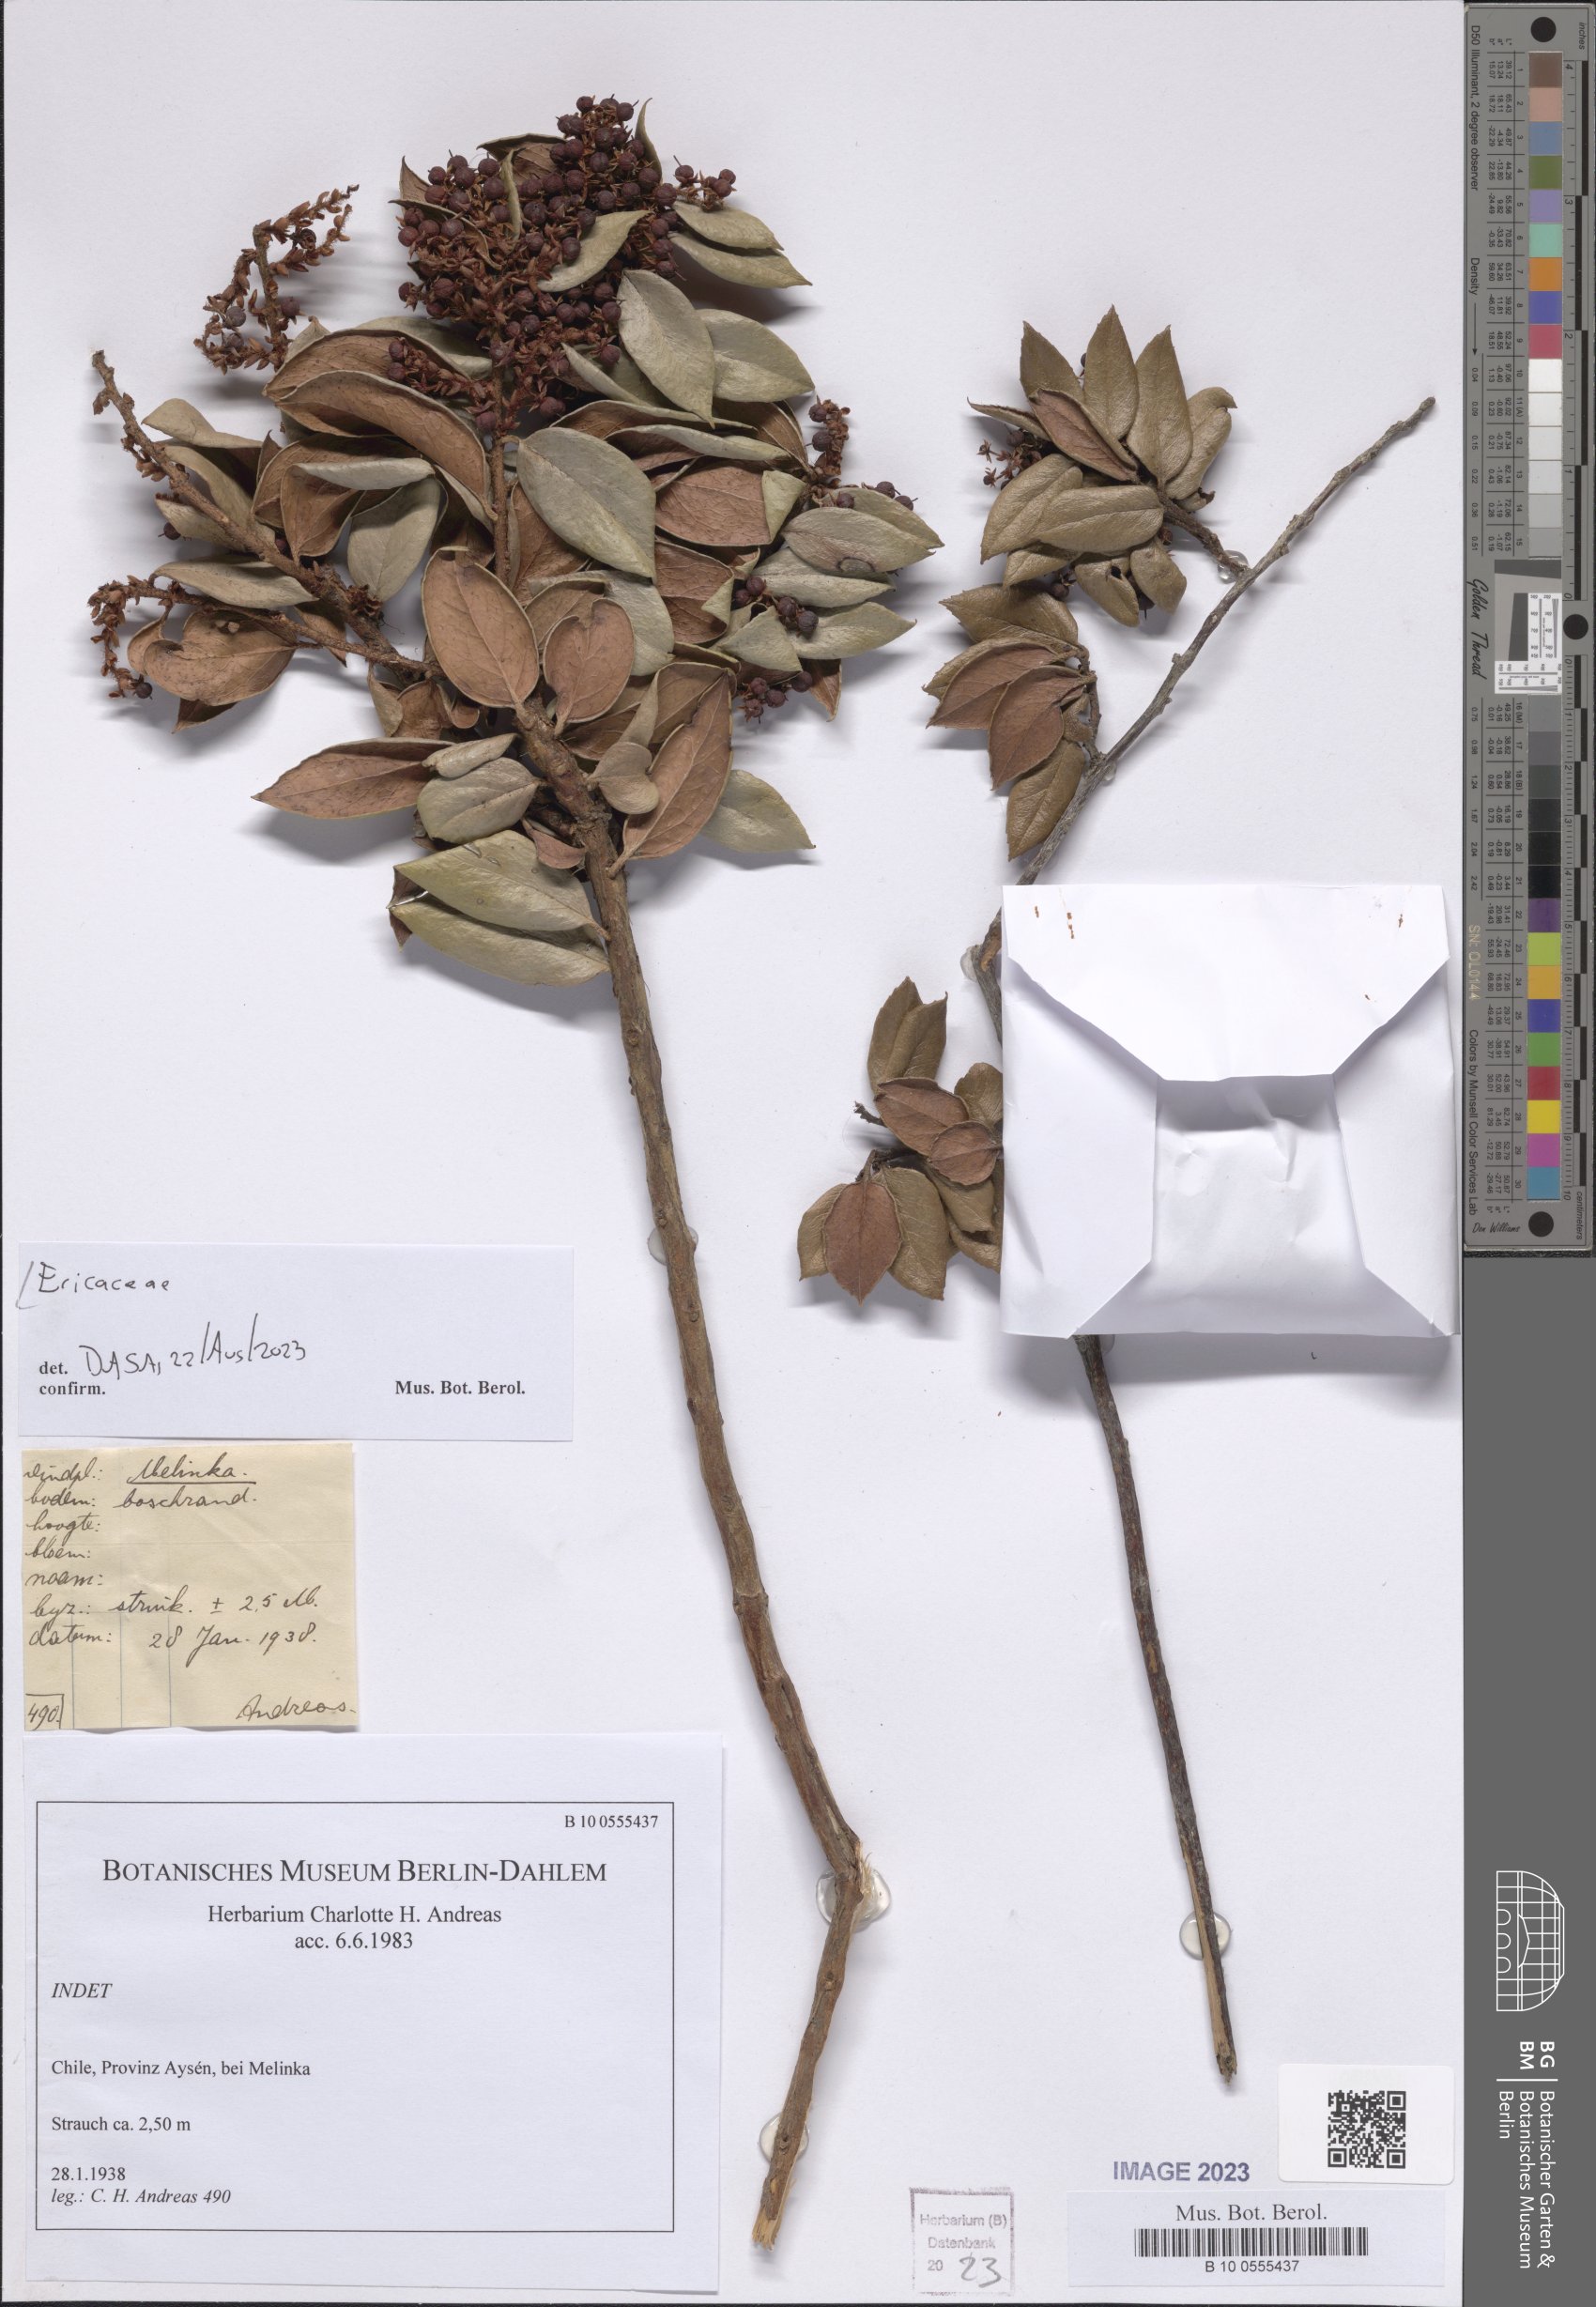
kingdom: Plantae
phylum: Tracheophyta
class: Magnoliopsida
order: Ericales
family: Ericaceae
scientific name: Ericaceae
